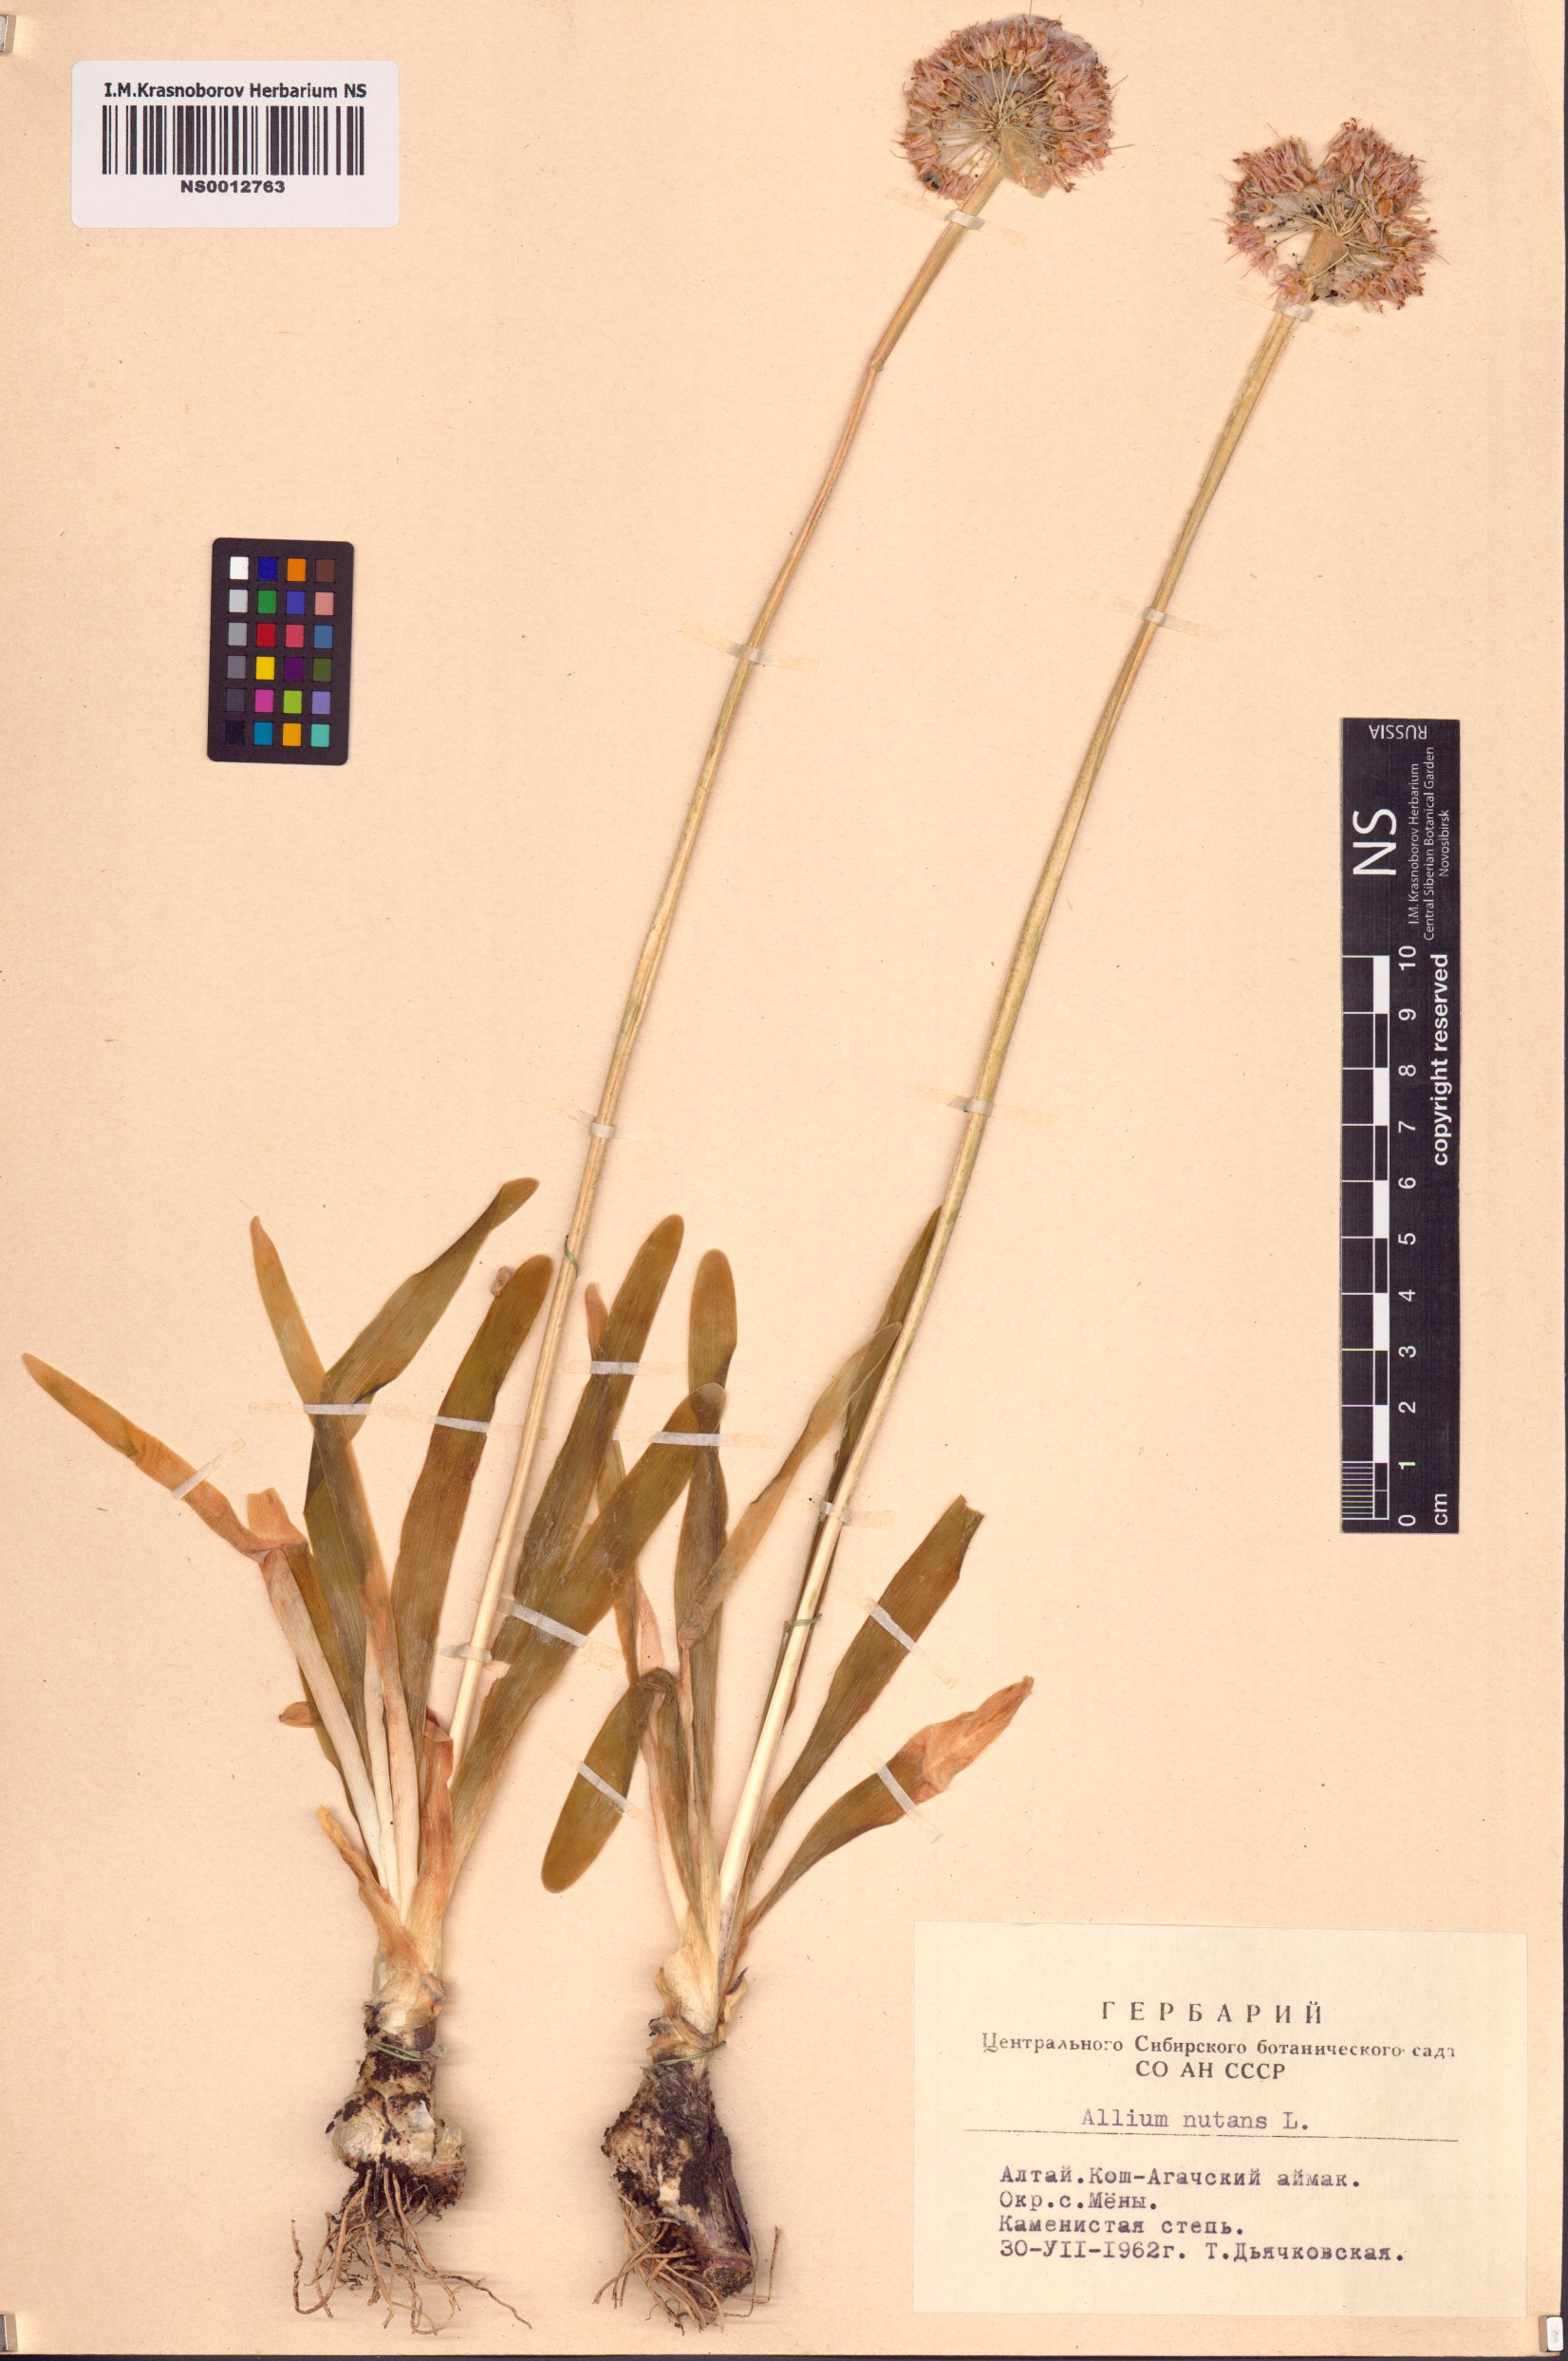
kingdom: Plantae
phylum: Tracheophyta
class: Liliopsida
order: Asparagales
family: Amaryllidaceae
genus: Allium
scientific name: Allium nutans
